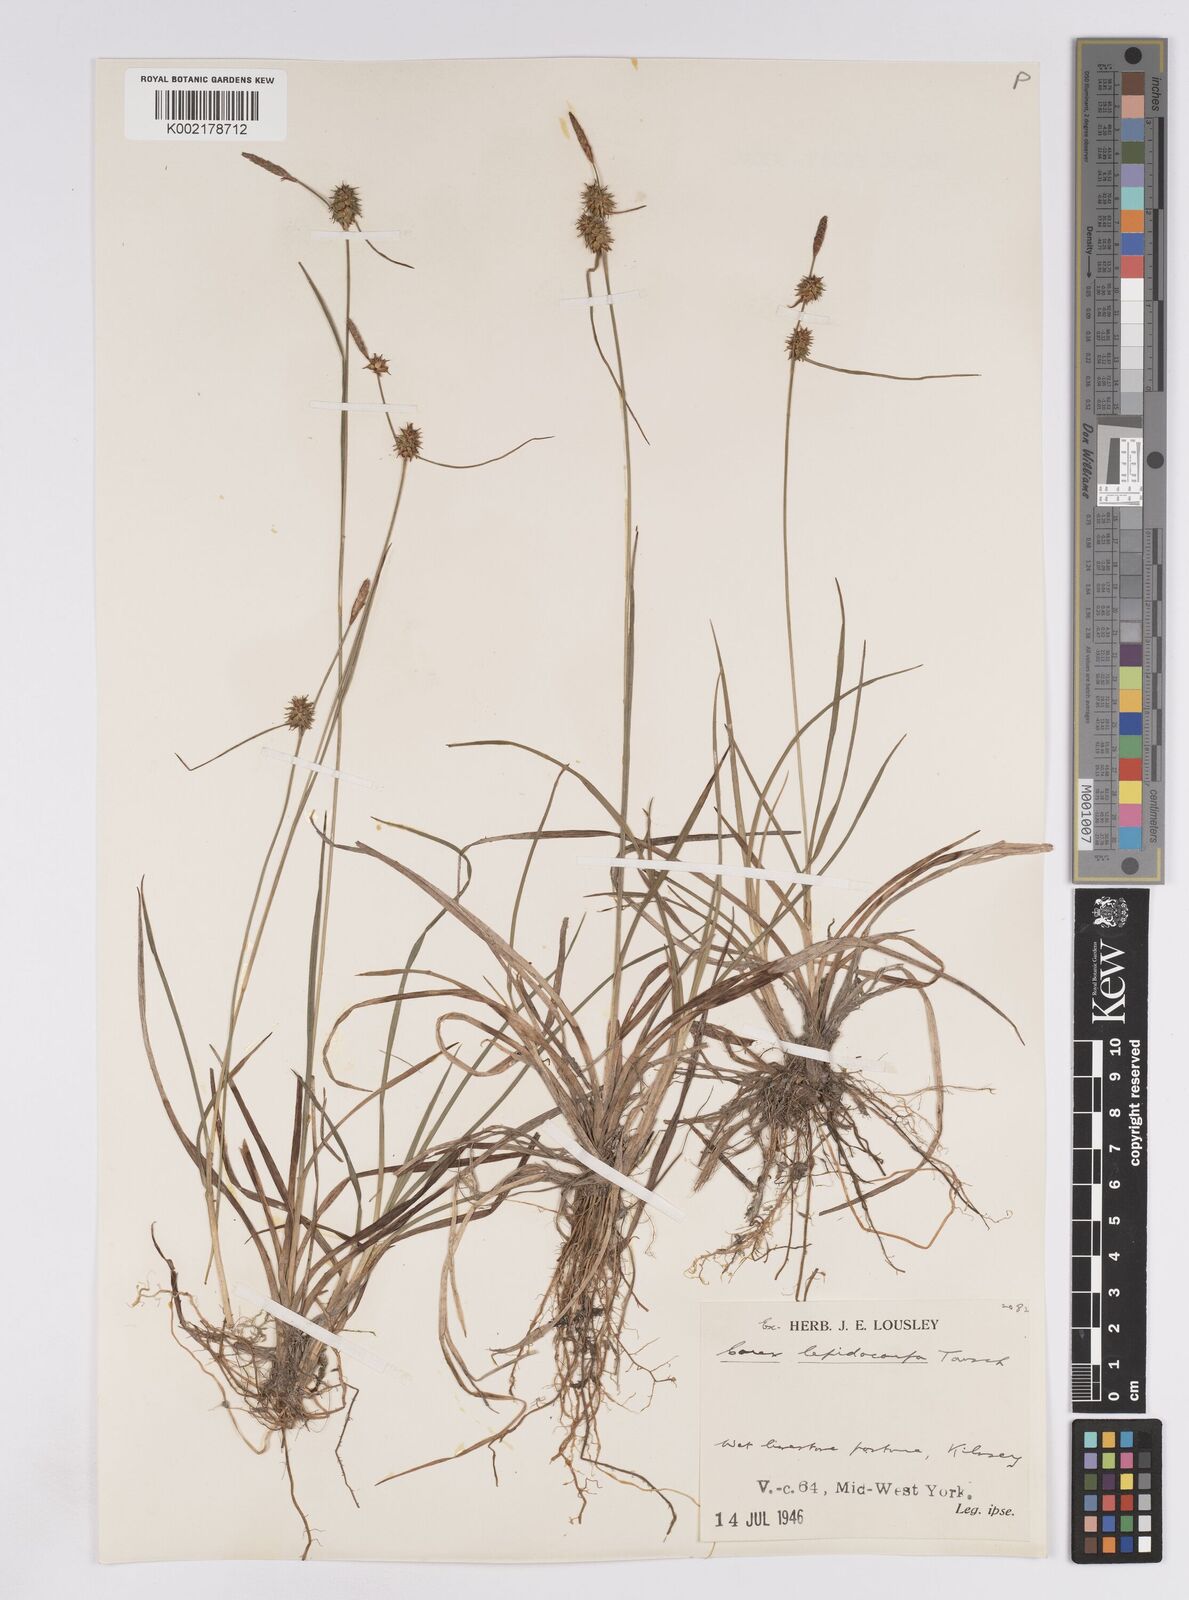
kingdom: Plantae
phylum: Tracheophyta
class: Liliopsida
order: Poales
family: Cyperaceae
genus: Carex
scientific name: Carex lepidocarpa
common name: Long-stalked yellow-sedge
